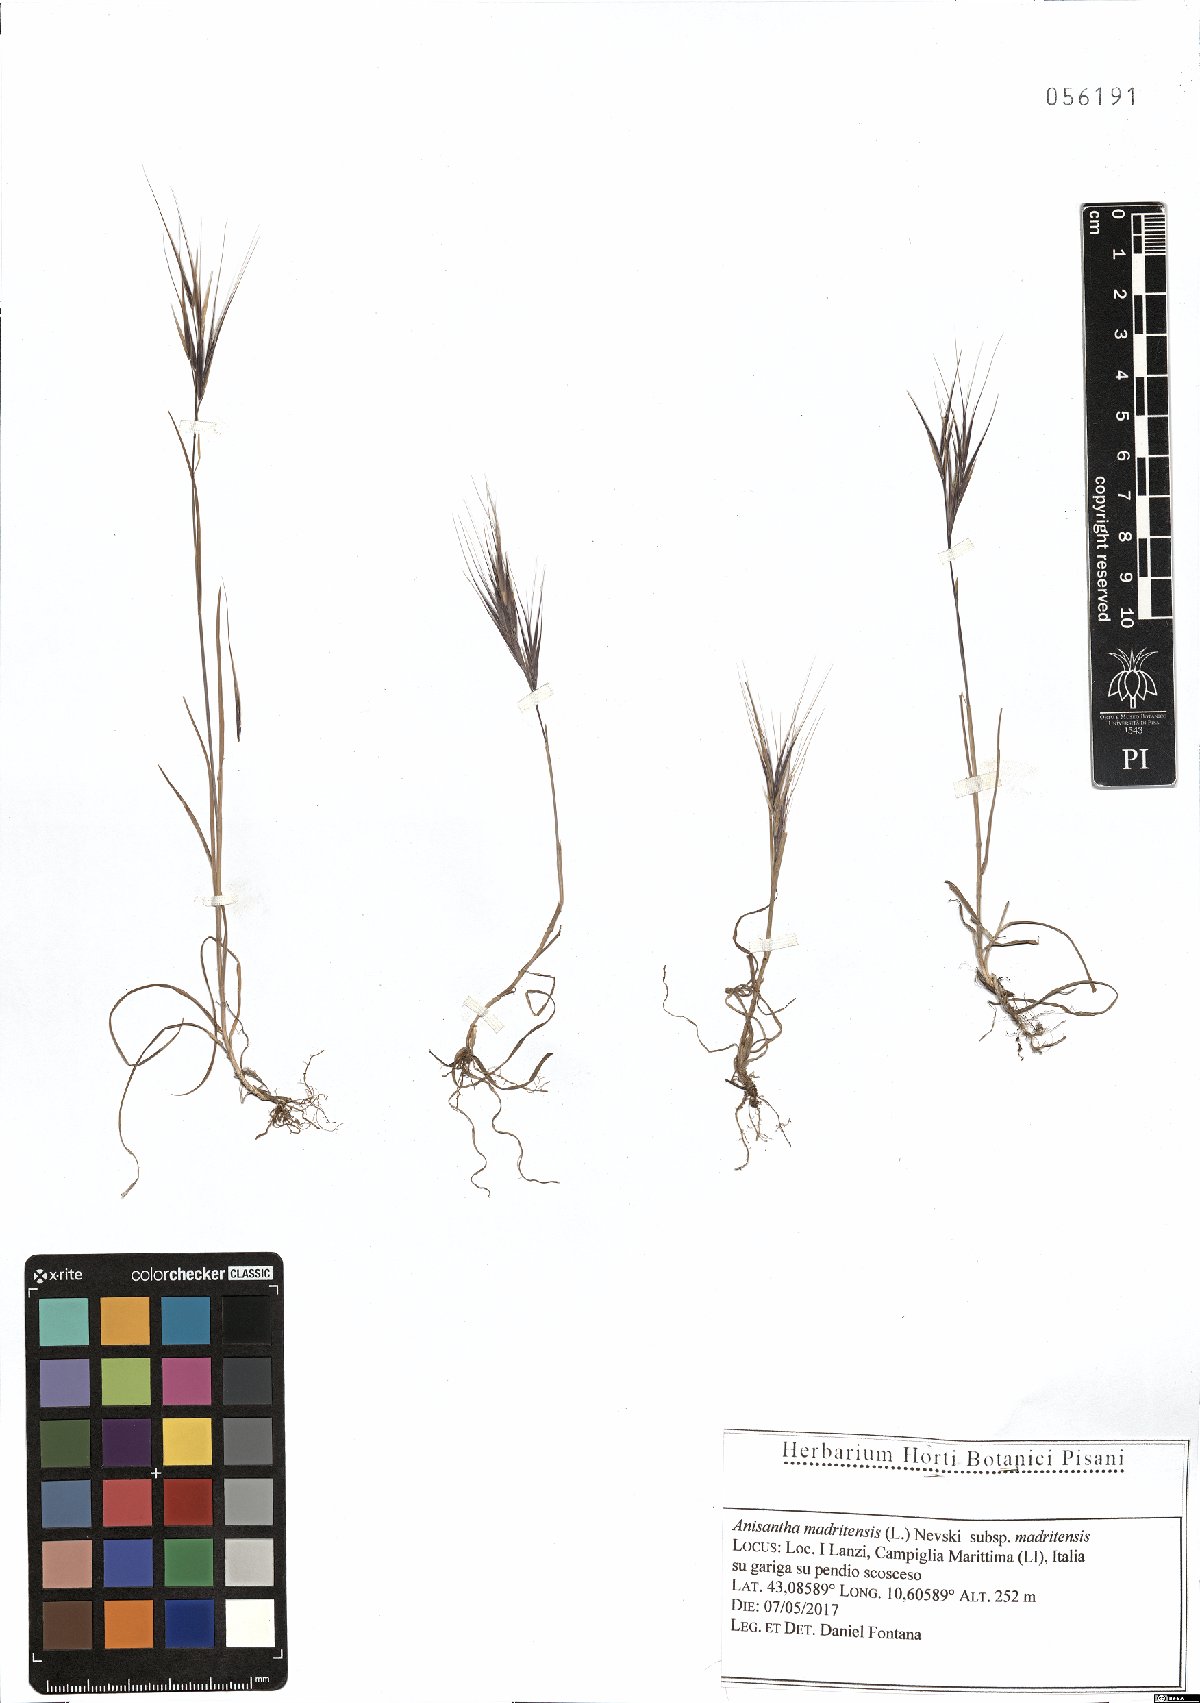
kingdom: Plantae
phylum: Tracheophyta
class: Liliopsida
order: Poales
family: Poaceae
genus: Bromus
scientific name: Bromus madritensis
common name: Compact brome
